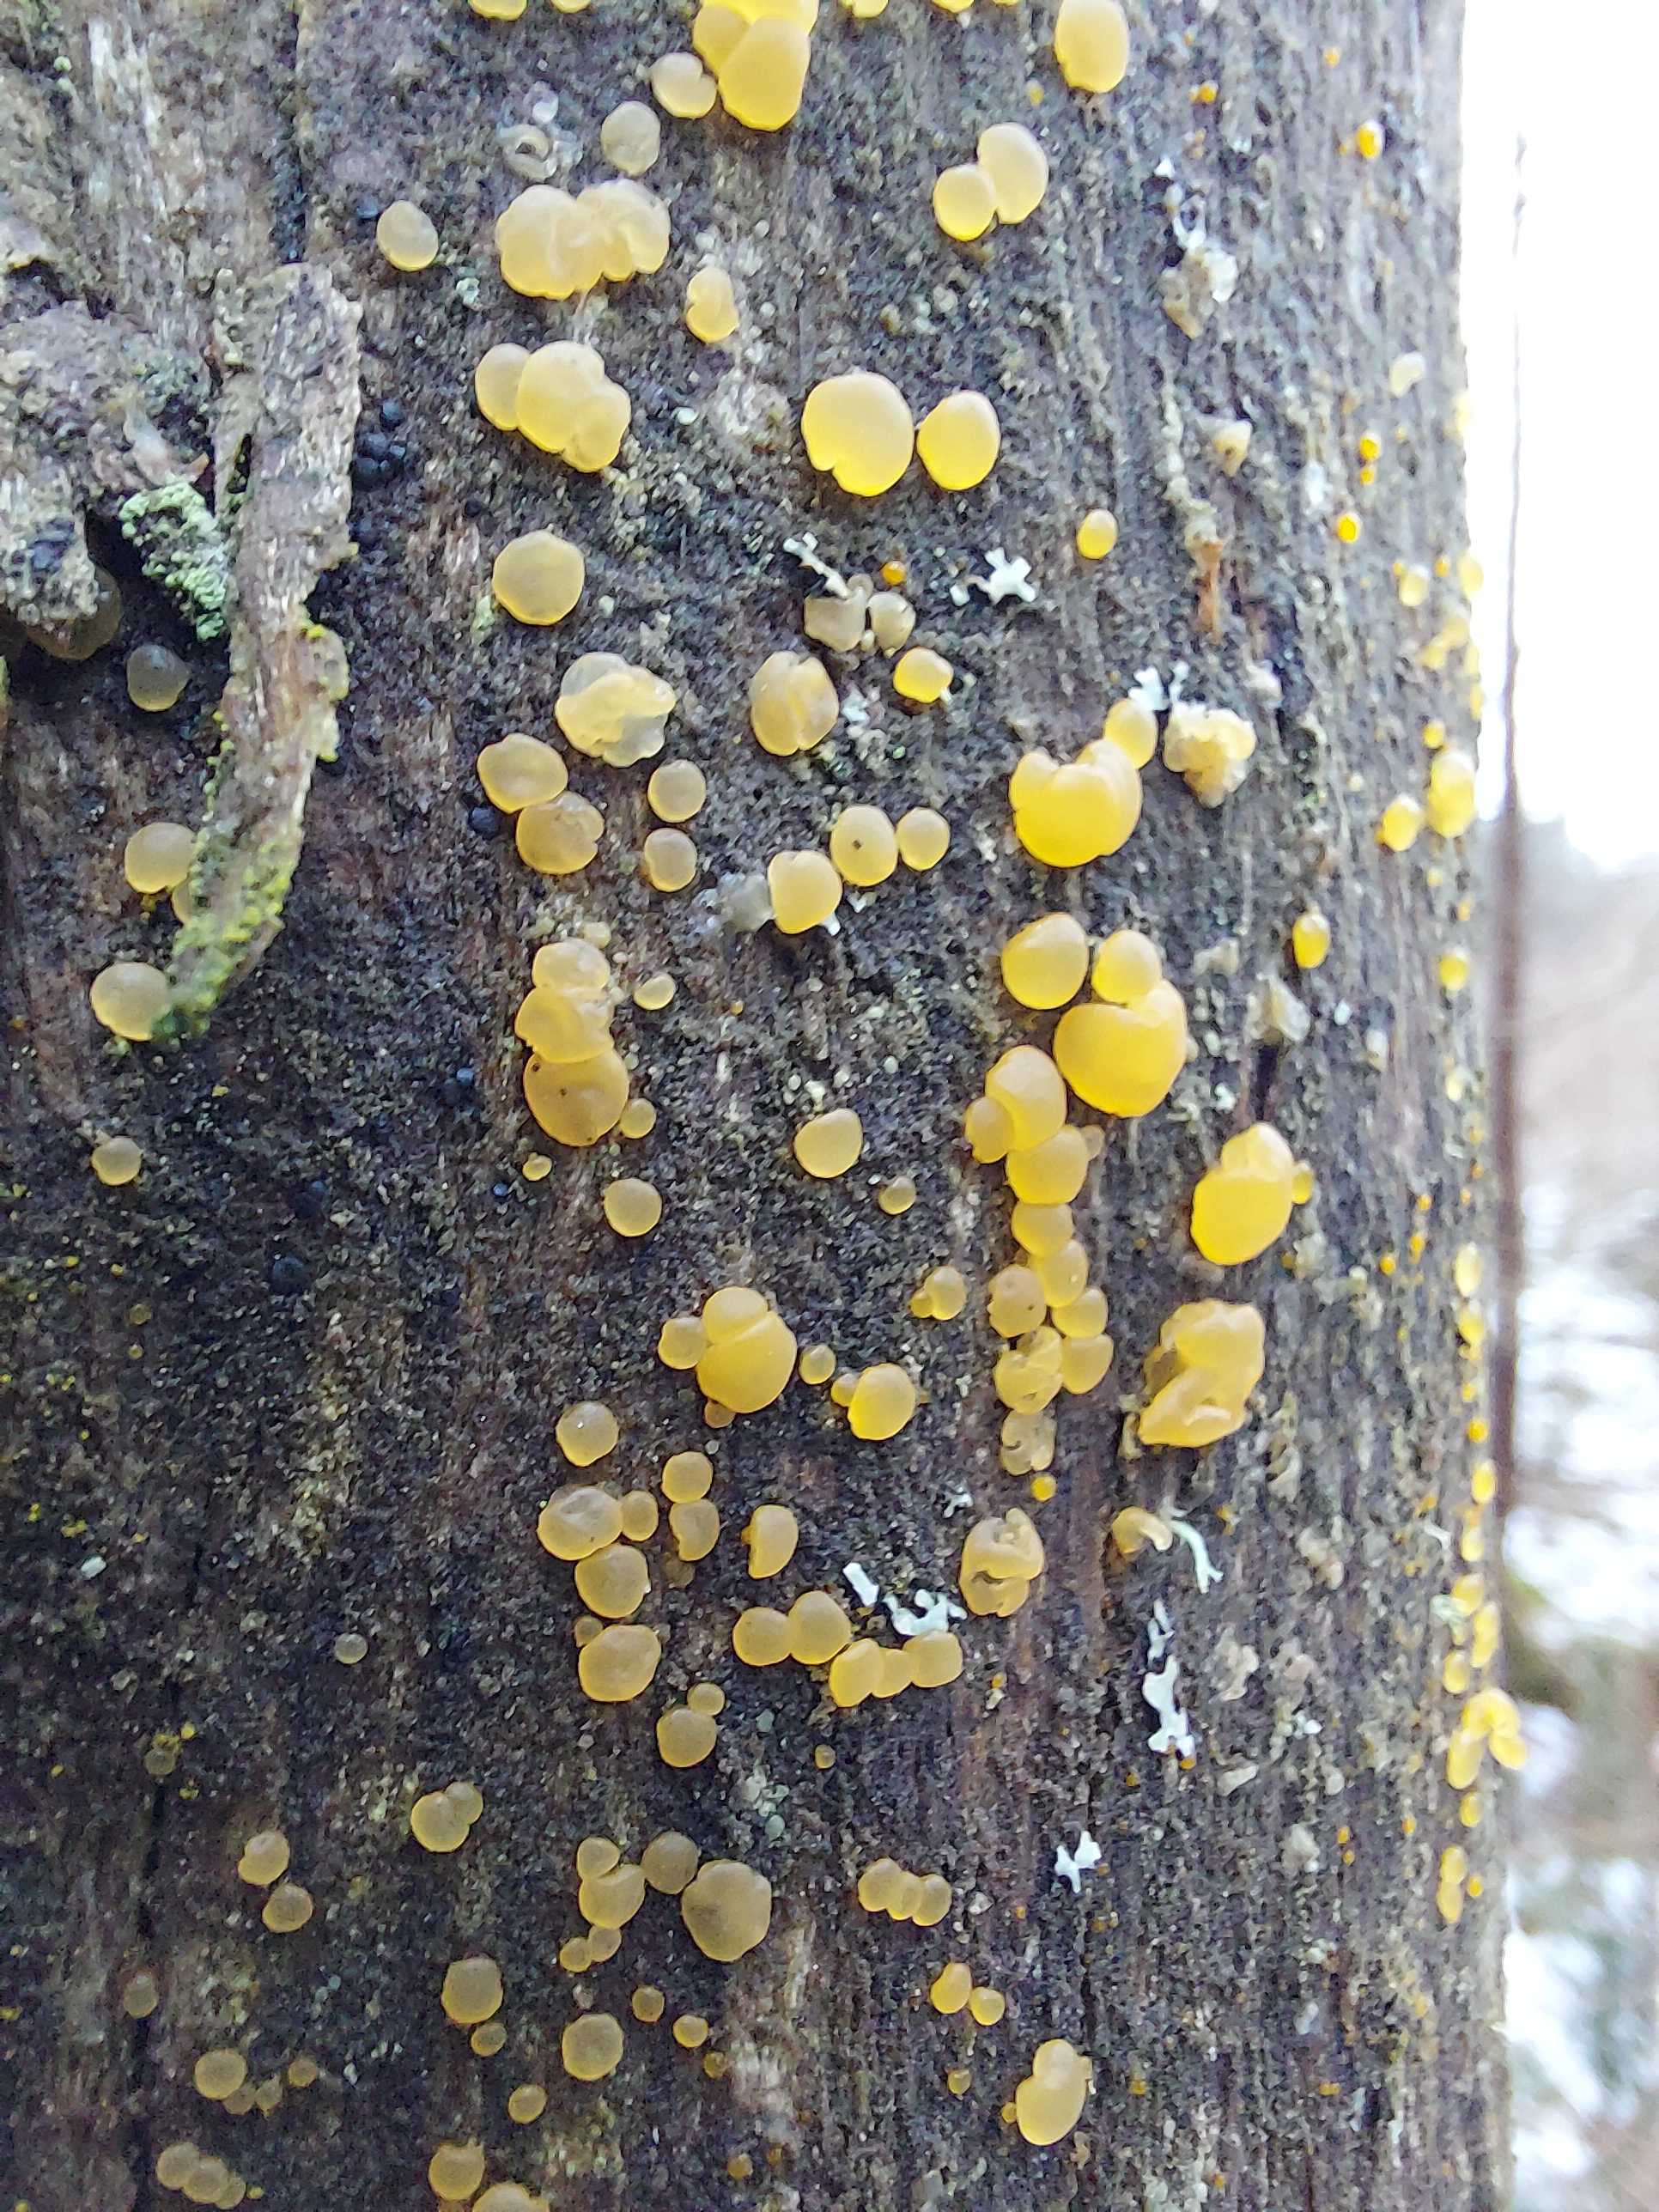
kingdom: Fungi
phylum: Basidiomycota
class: Dacrymycetes
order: Dacrymycetales
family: Dacrymycetaceae
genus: Dacrymyces
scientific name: Dacrymyces
